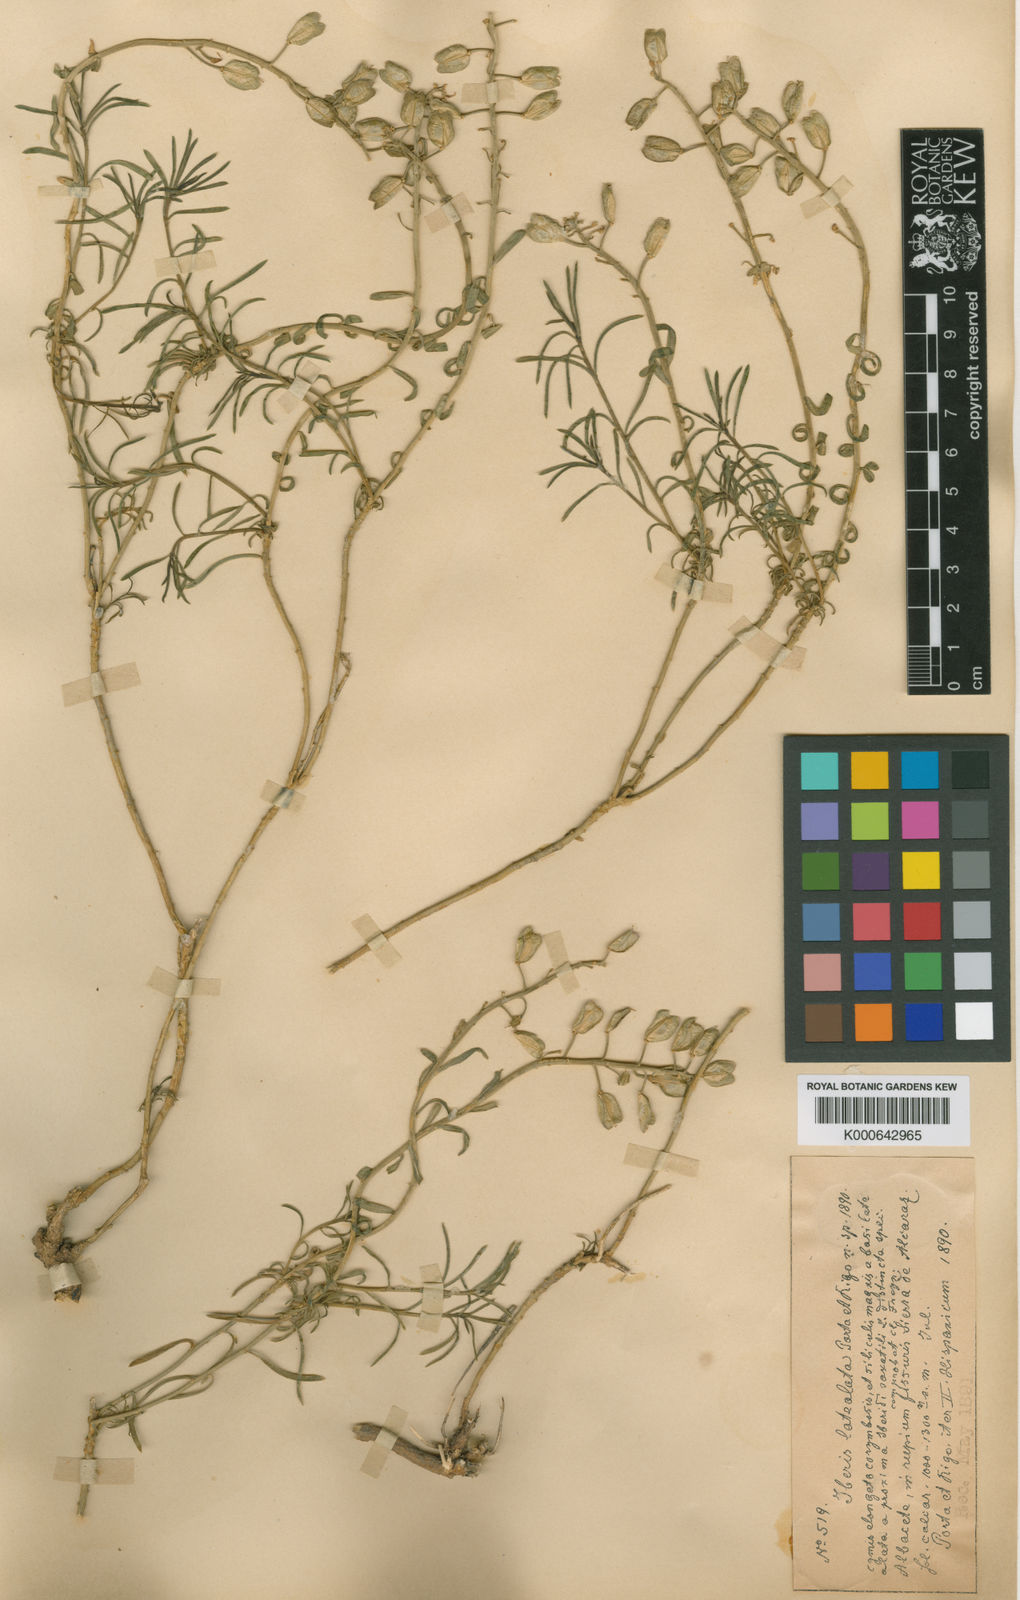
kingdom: Plantae
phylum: Tracheophyta
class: Magnoliopsida
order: Brassicales
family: Brassicaceae
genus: Iberis
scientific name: Iberis saxatilis
